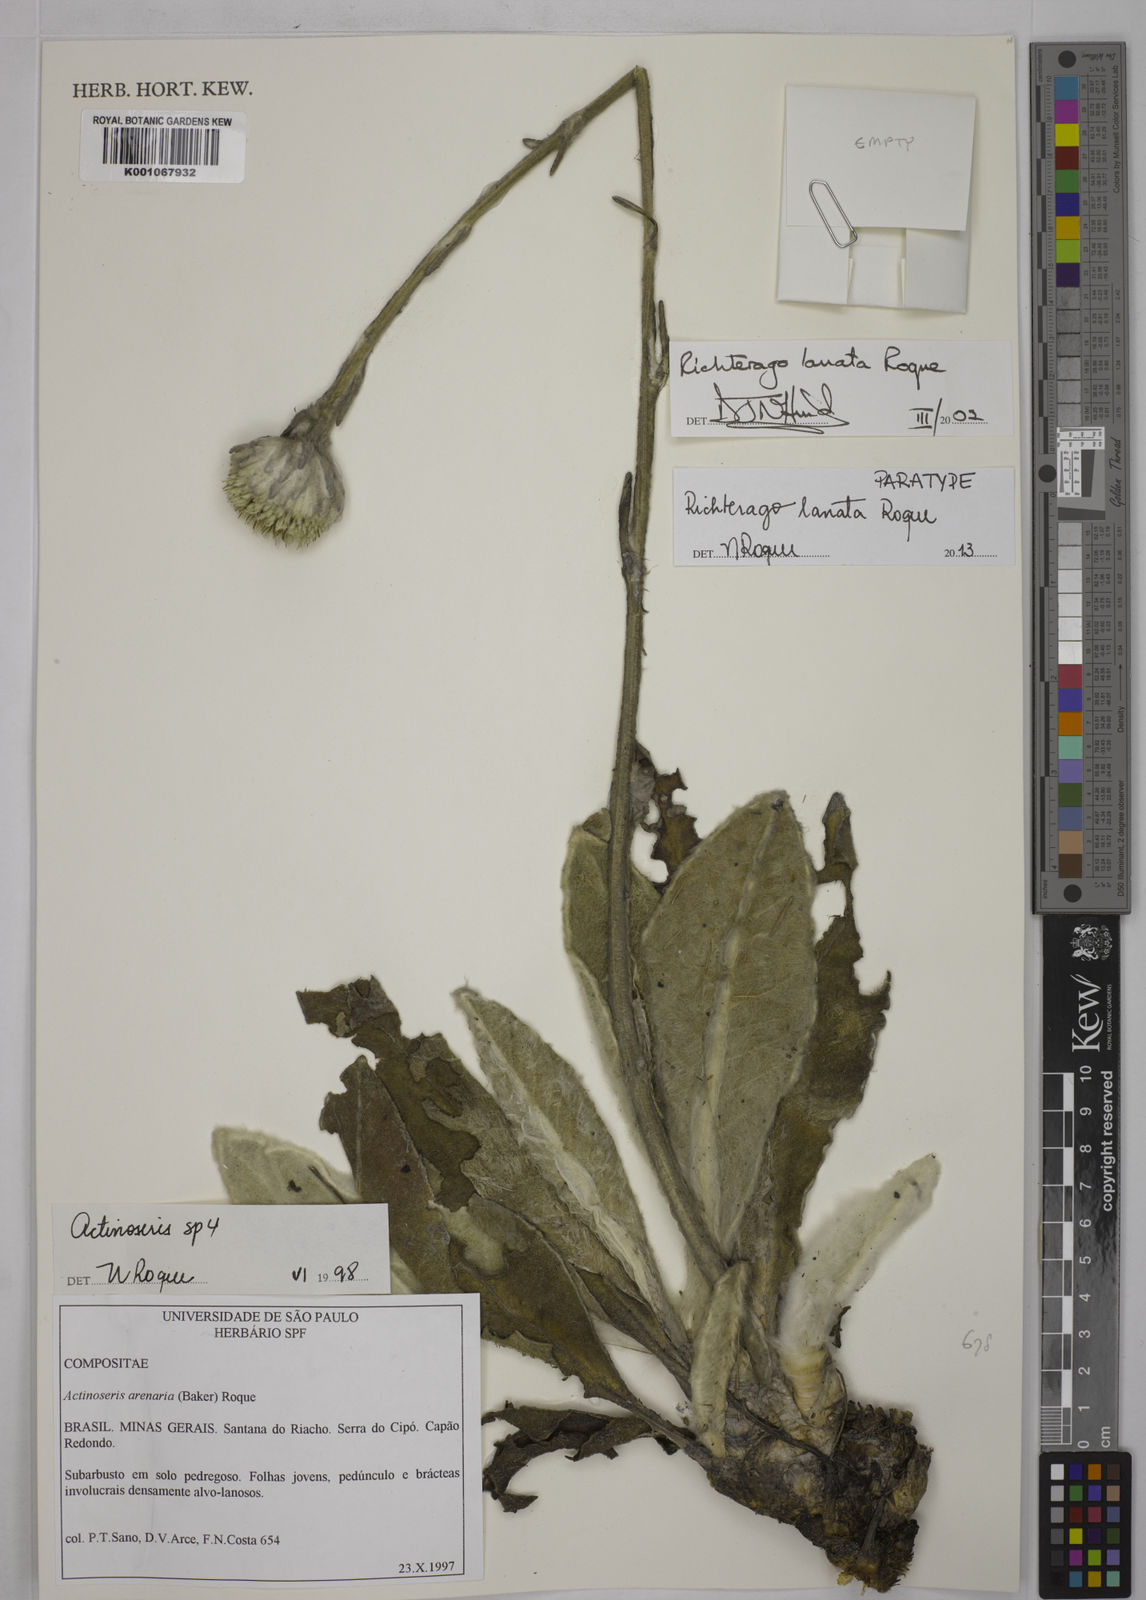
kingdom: Plantae
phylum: Tracheophyta
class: Magnoliopsida
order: Asterales
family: Asteraceae
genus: Richterago
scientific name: Richterago lanata
